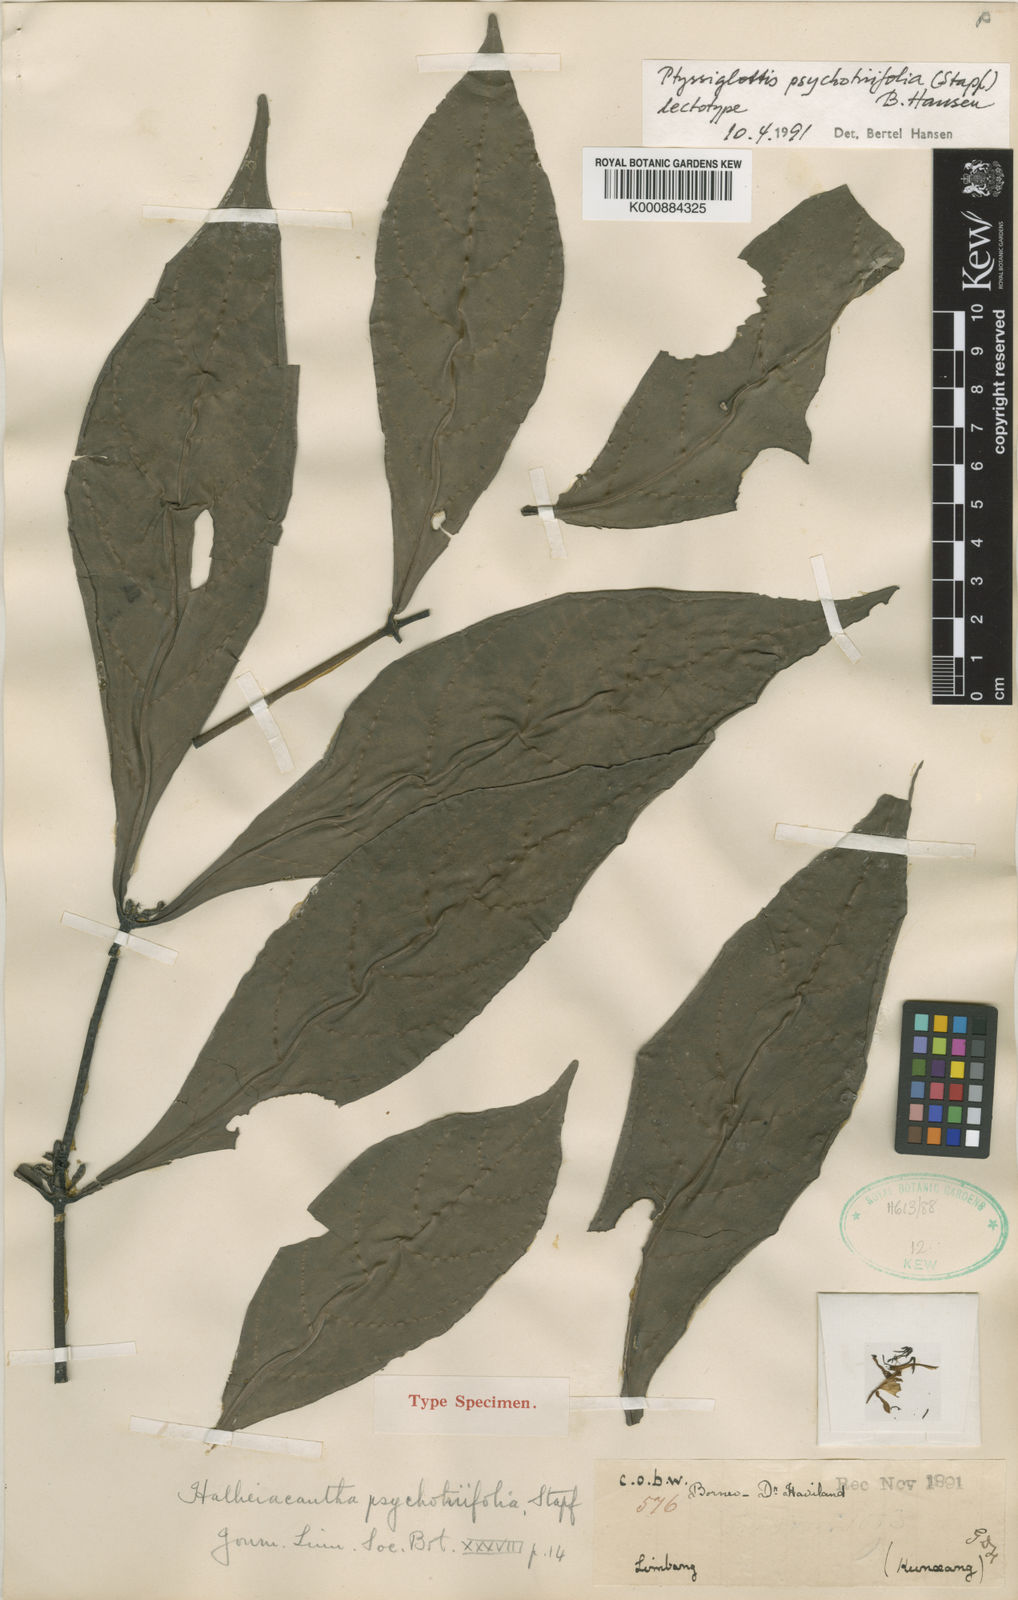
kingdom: Plantae
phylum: Tracheophyta
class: Magnoliopsida
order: Lamiales
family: Acanthaceae
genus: Ptyssiglottis
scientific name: Ptyssiglottis psychotriifolia
